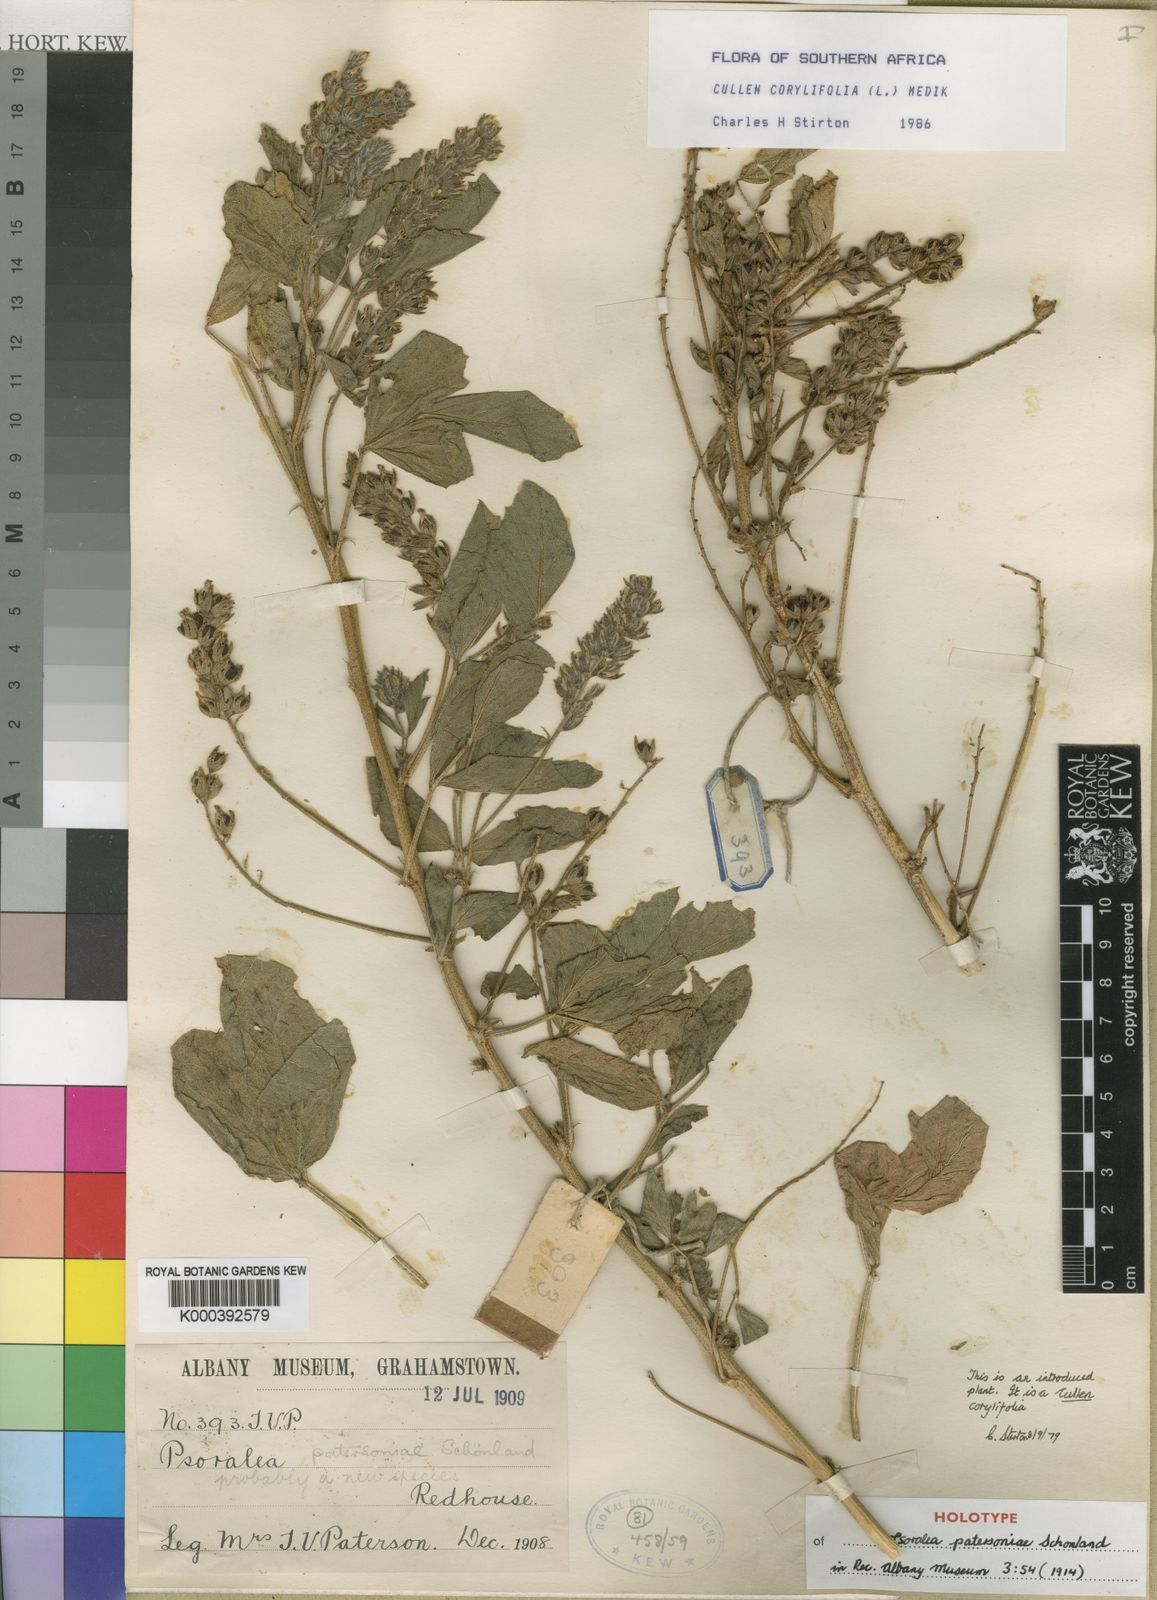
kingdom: Plantae
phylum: Tracheophyta
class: Magnoliopsida
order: Fabales
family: Fabaceae
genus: Cullen
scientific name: Cullen corylifolium
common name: Malaysian scurfpea
